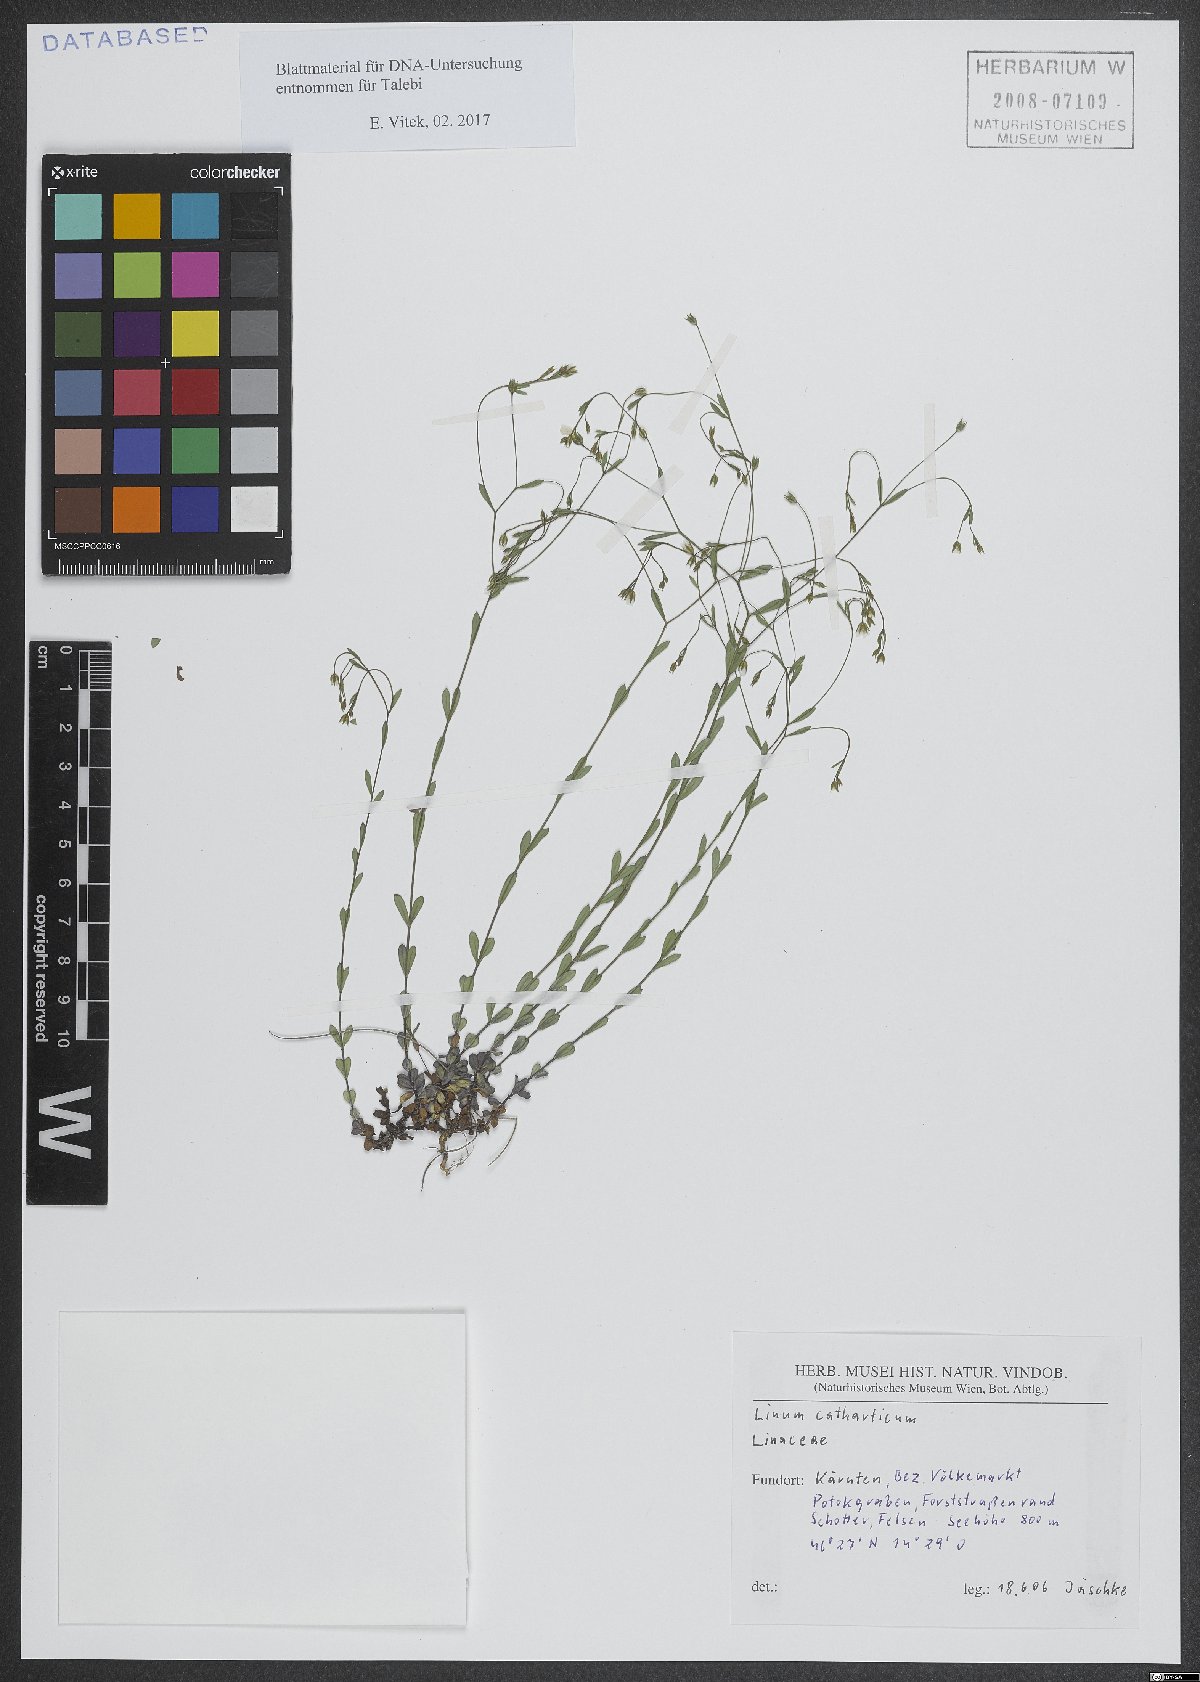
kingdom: Plantae
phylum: Tracheophyta
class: Magnoliopsida
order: Malpighiales
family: Linaceae
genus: Linum
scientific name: Linum catharticum
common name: Fairy flax
